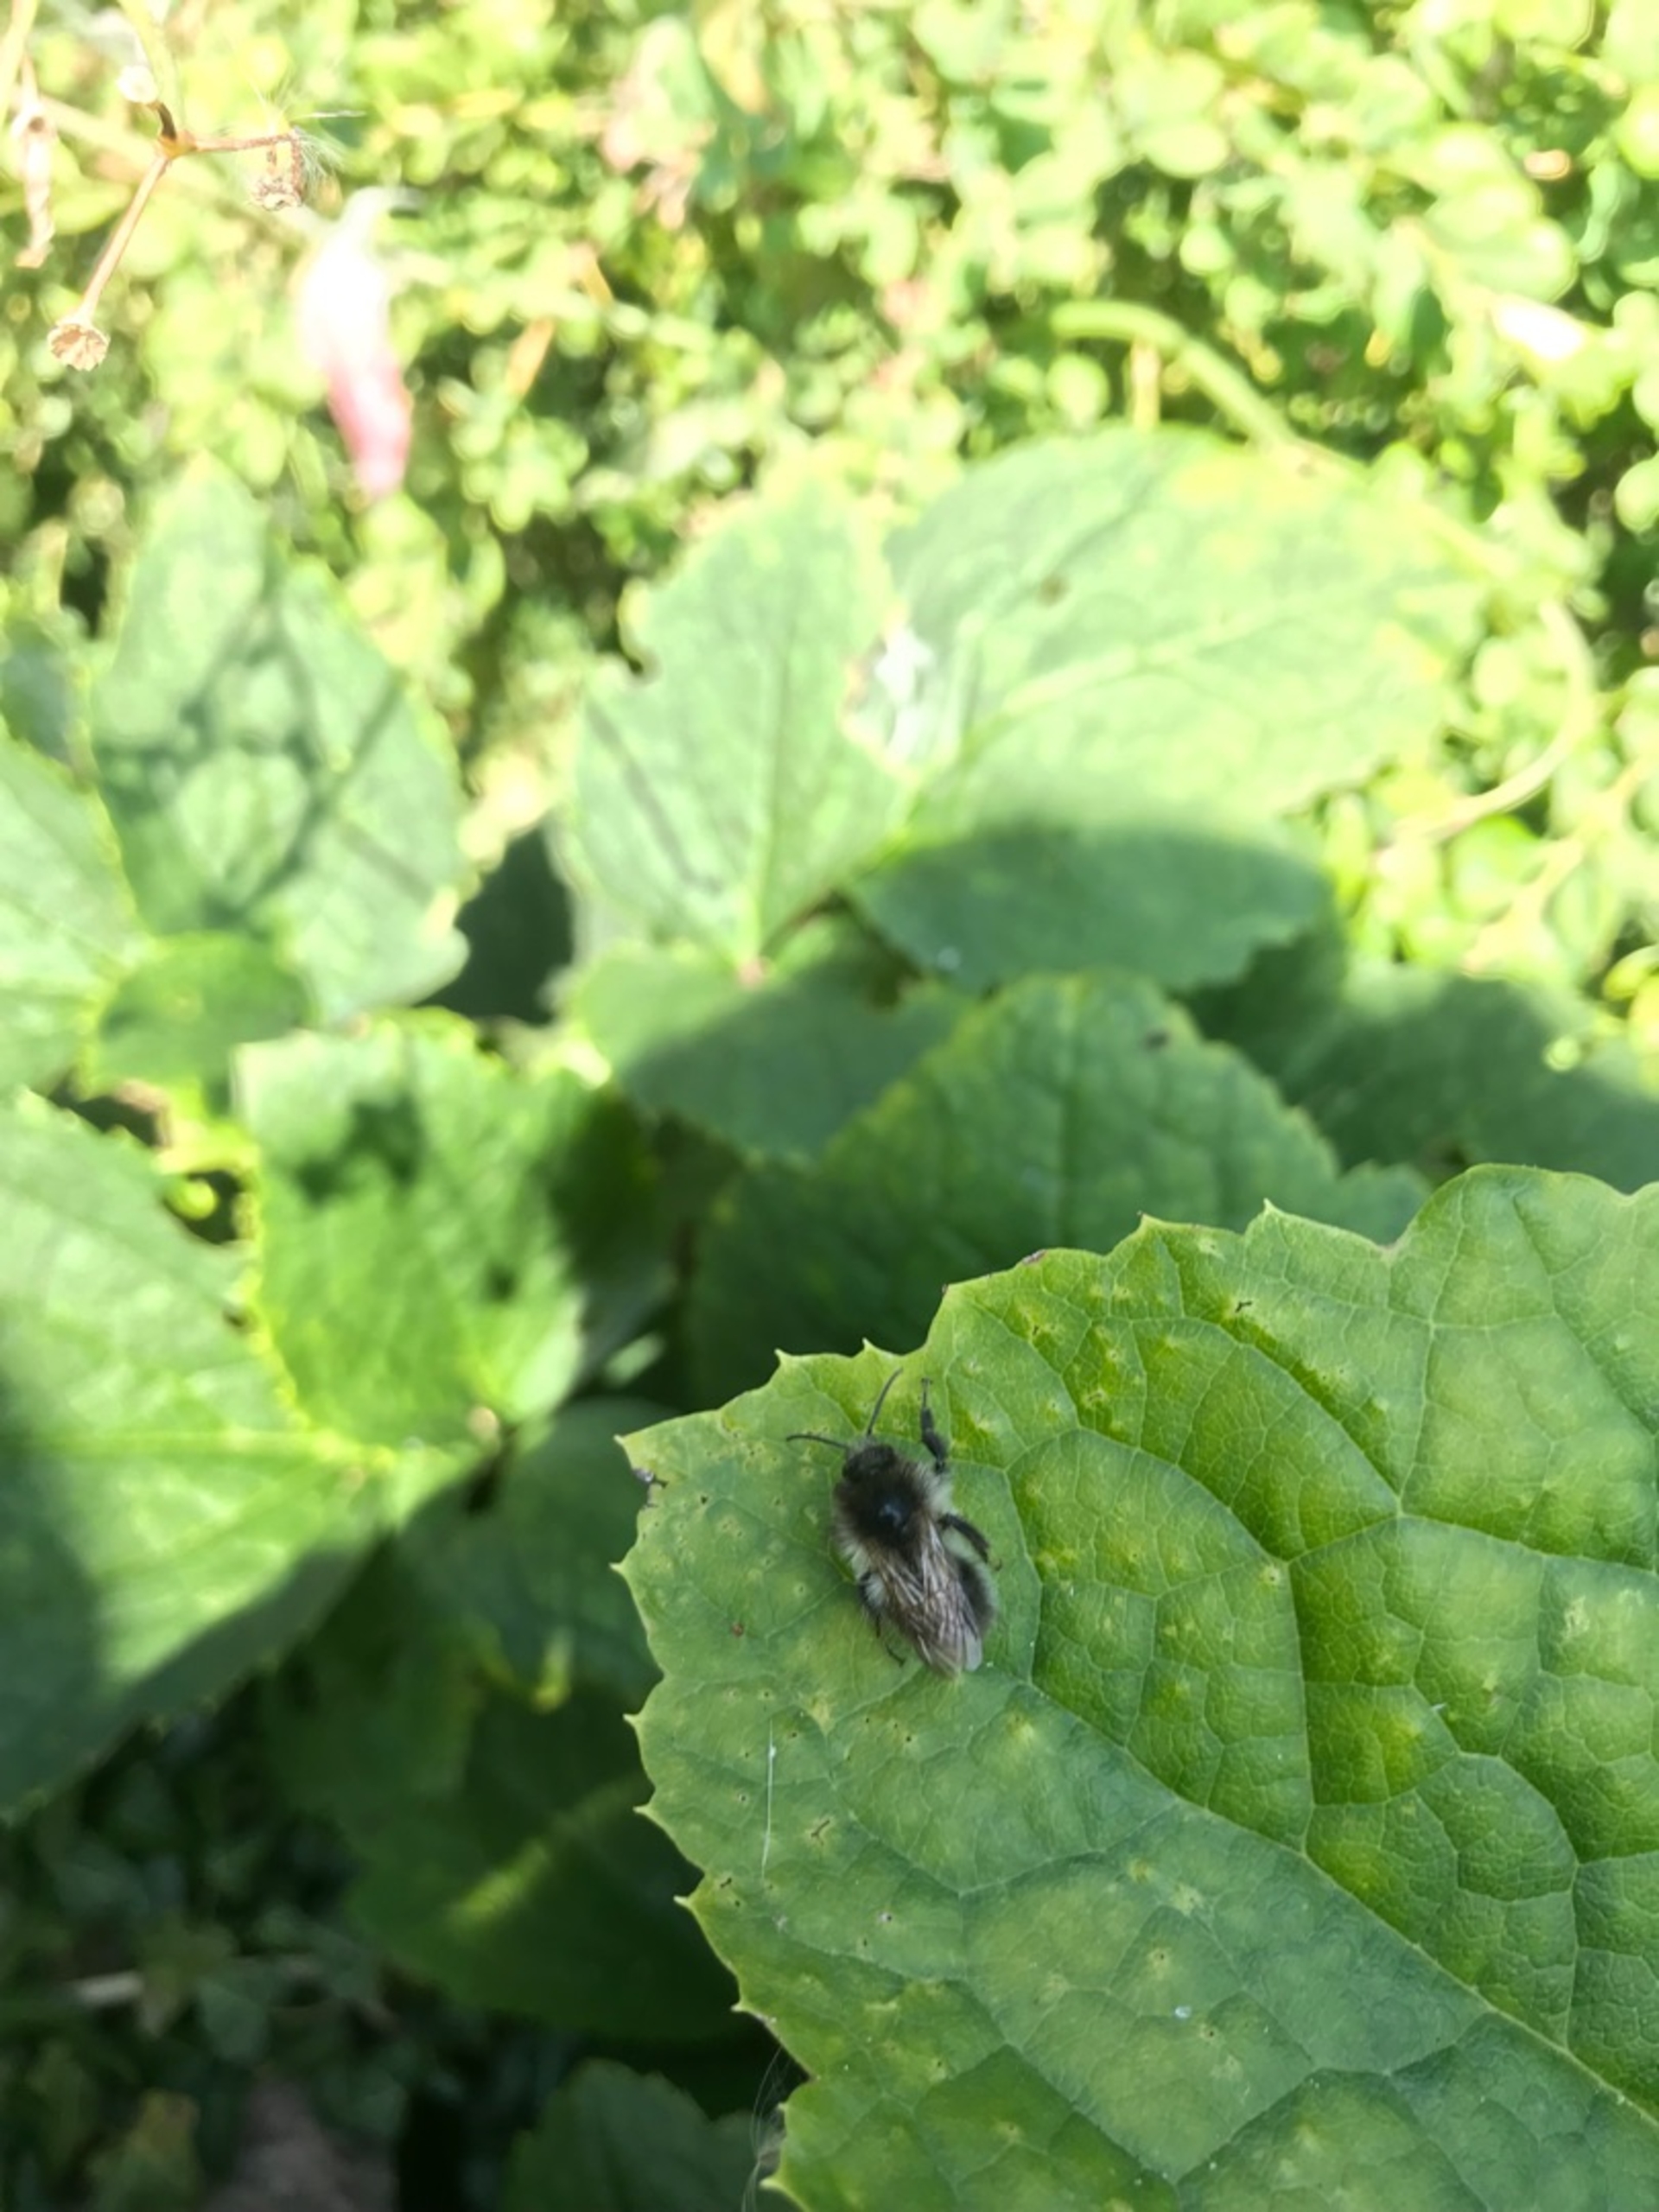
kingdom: Animalia
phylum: Arthropoda
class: Insecta
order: Hymenoptera
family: Apidae
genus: Bombus
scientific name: Bombus pascuorum
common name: Agerhumle
